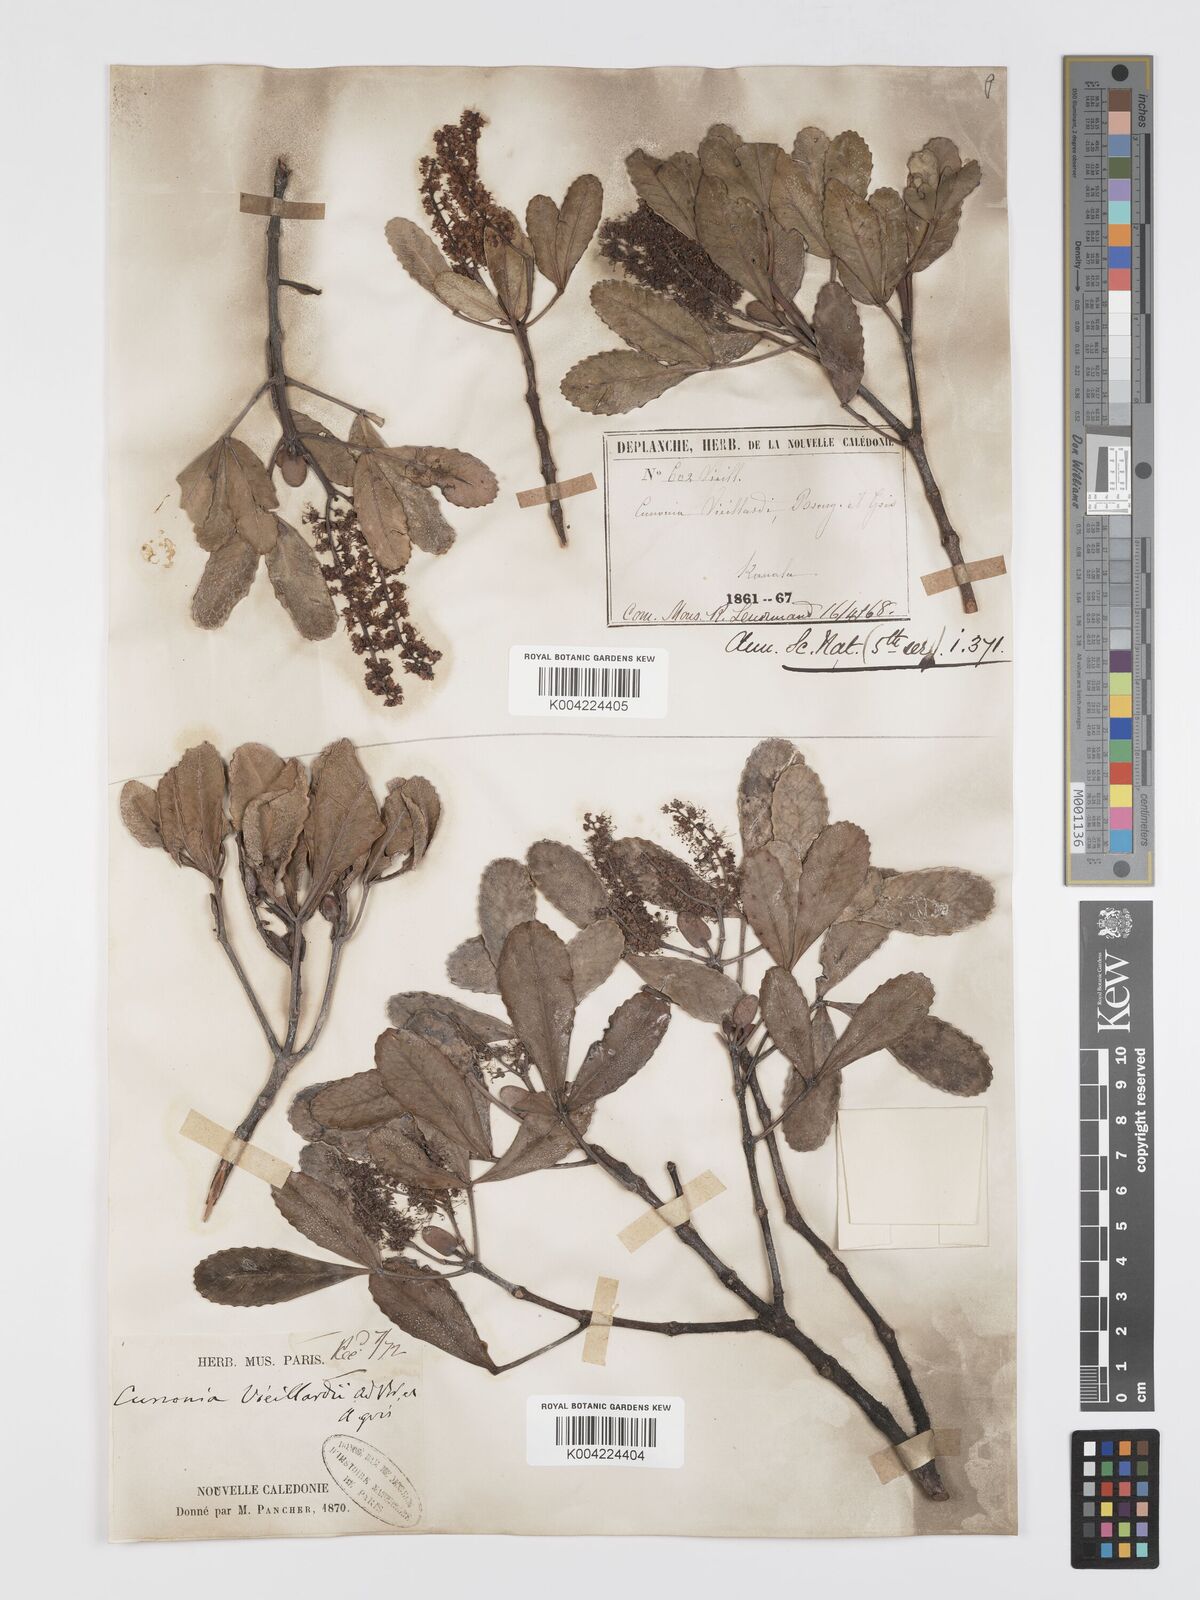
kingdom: Plantae
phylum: Tracheophyta
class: Magnoliopsida
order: Oxalidales
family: Cunoniaceae
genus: Cunonia
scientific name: Cunonia vieillardii
